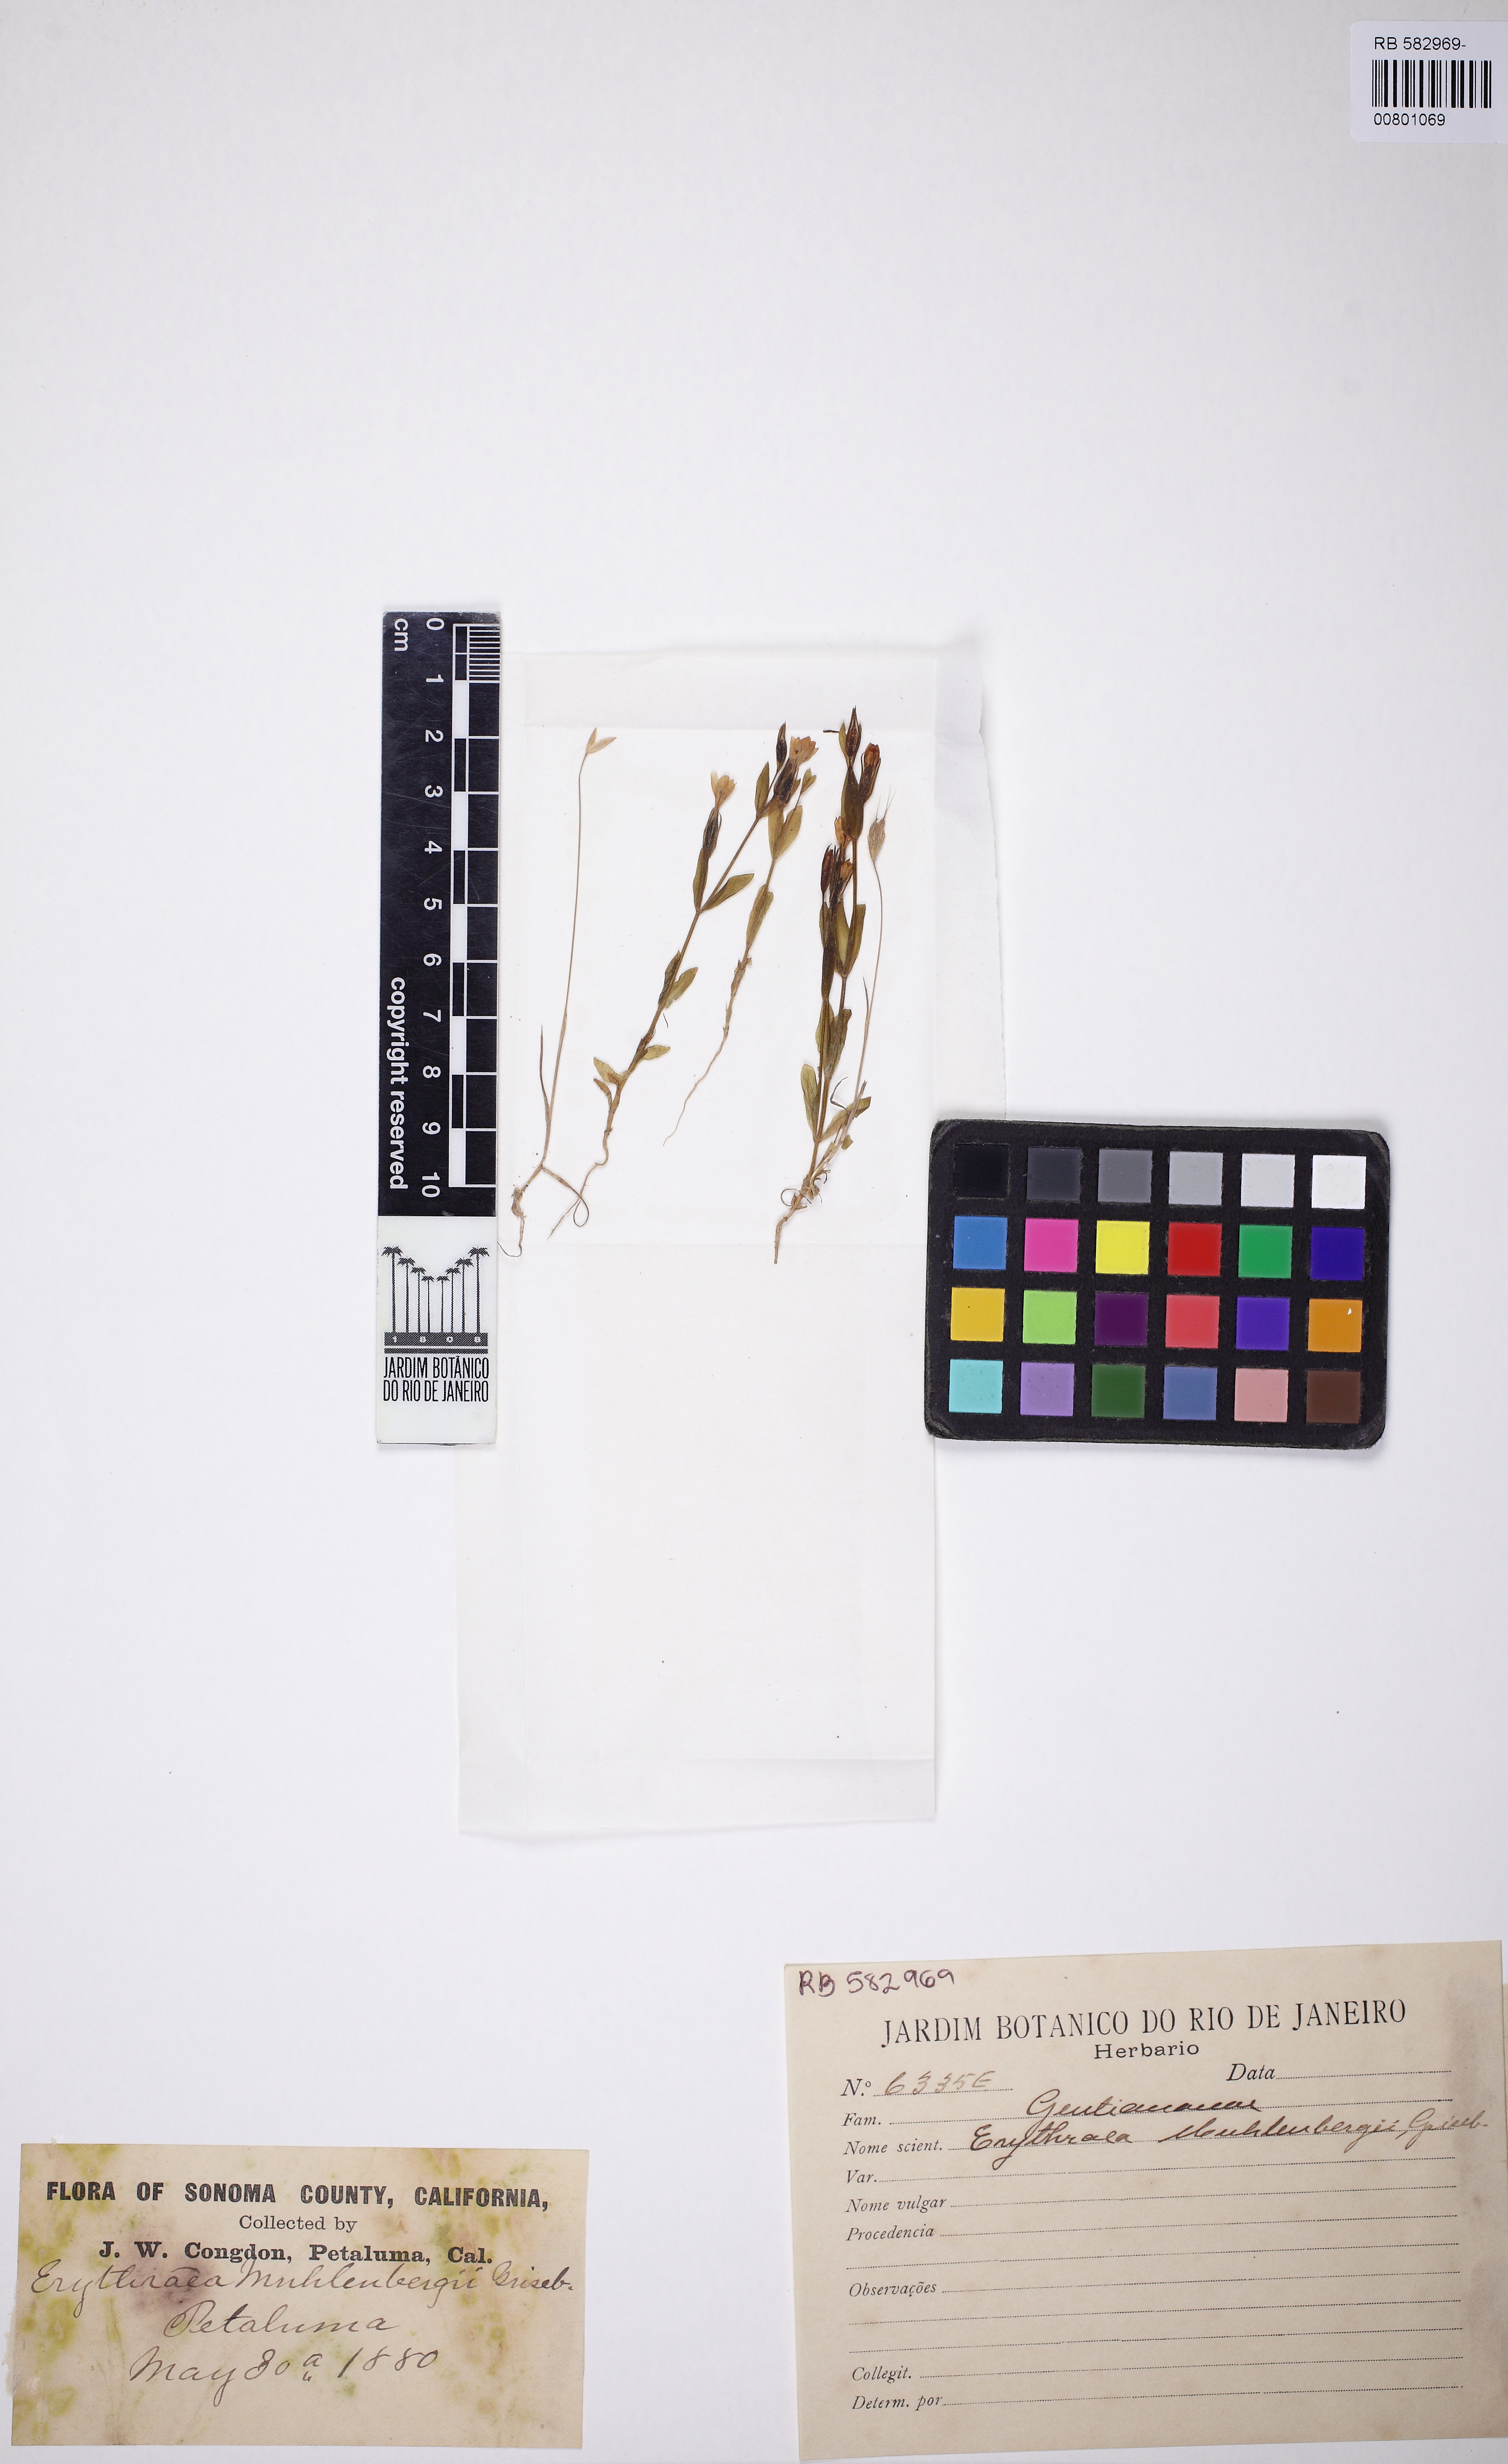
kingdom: Plantae
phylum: Tracheophyta
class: Magnoliopsida
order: Gentianales
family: Gentianaceae
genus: Zeltnera
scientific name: Zeltnera muhlenbergii
